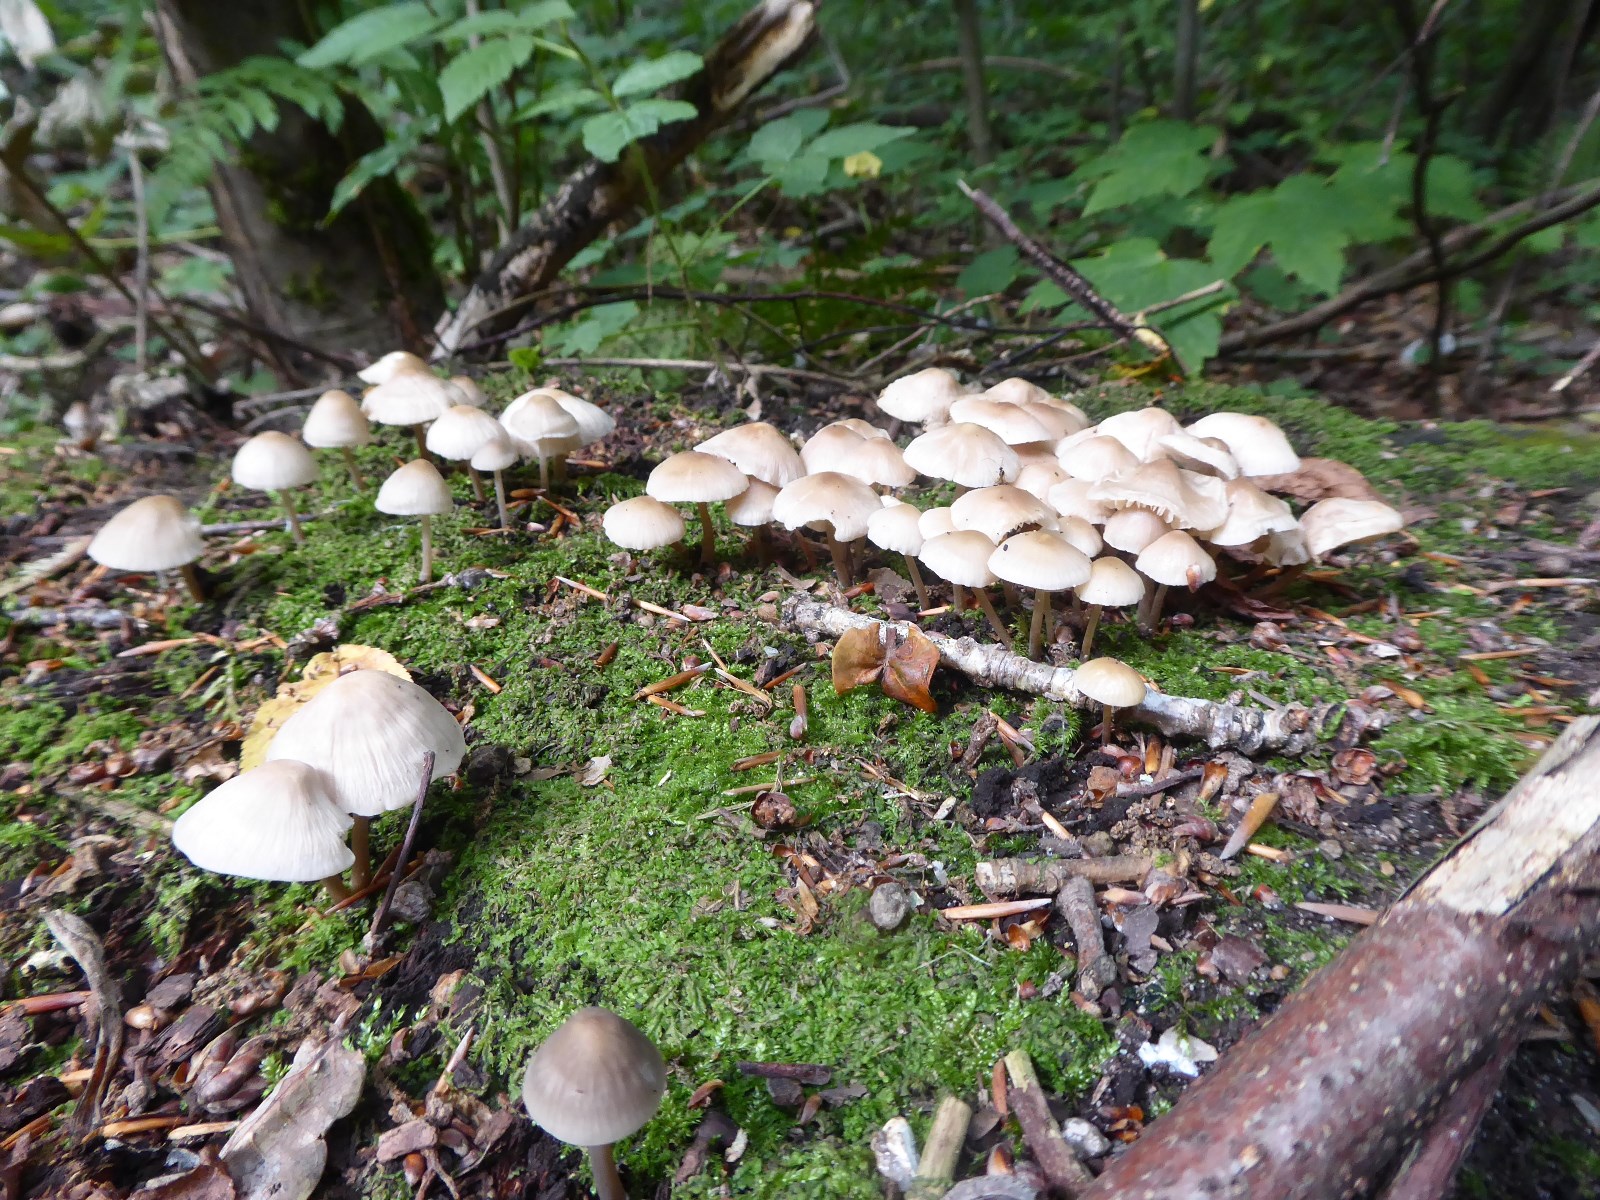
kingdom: Fungi
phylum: Basidiomycota
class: Agaricomycetes
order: Agaricales
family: Mycenaceae
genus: Mycena
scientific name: Mycena galericulata
